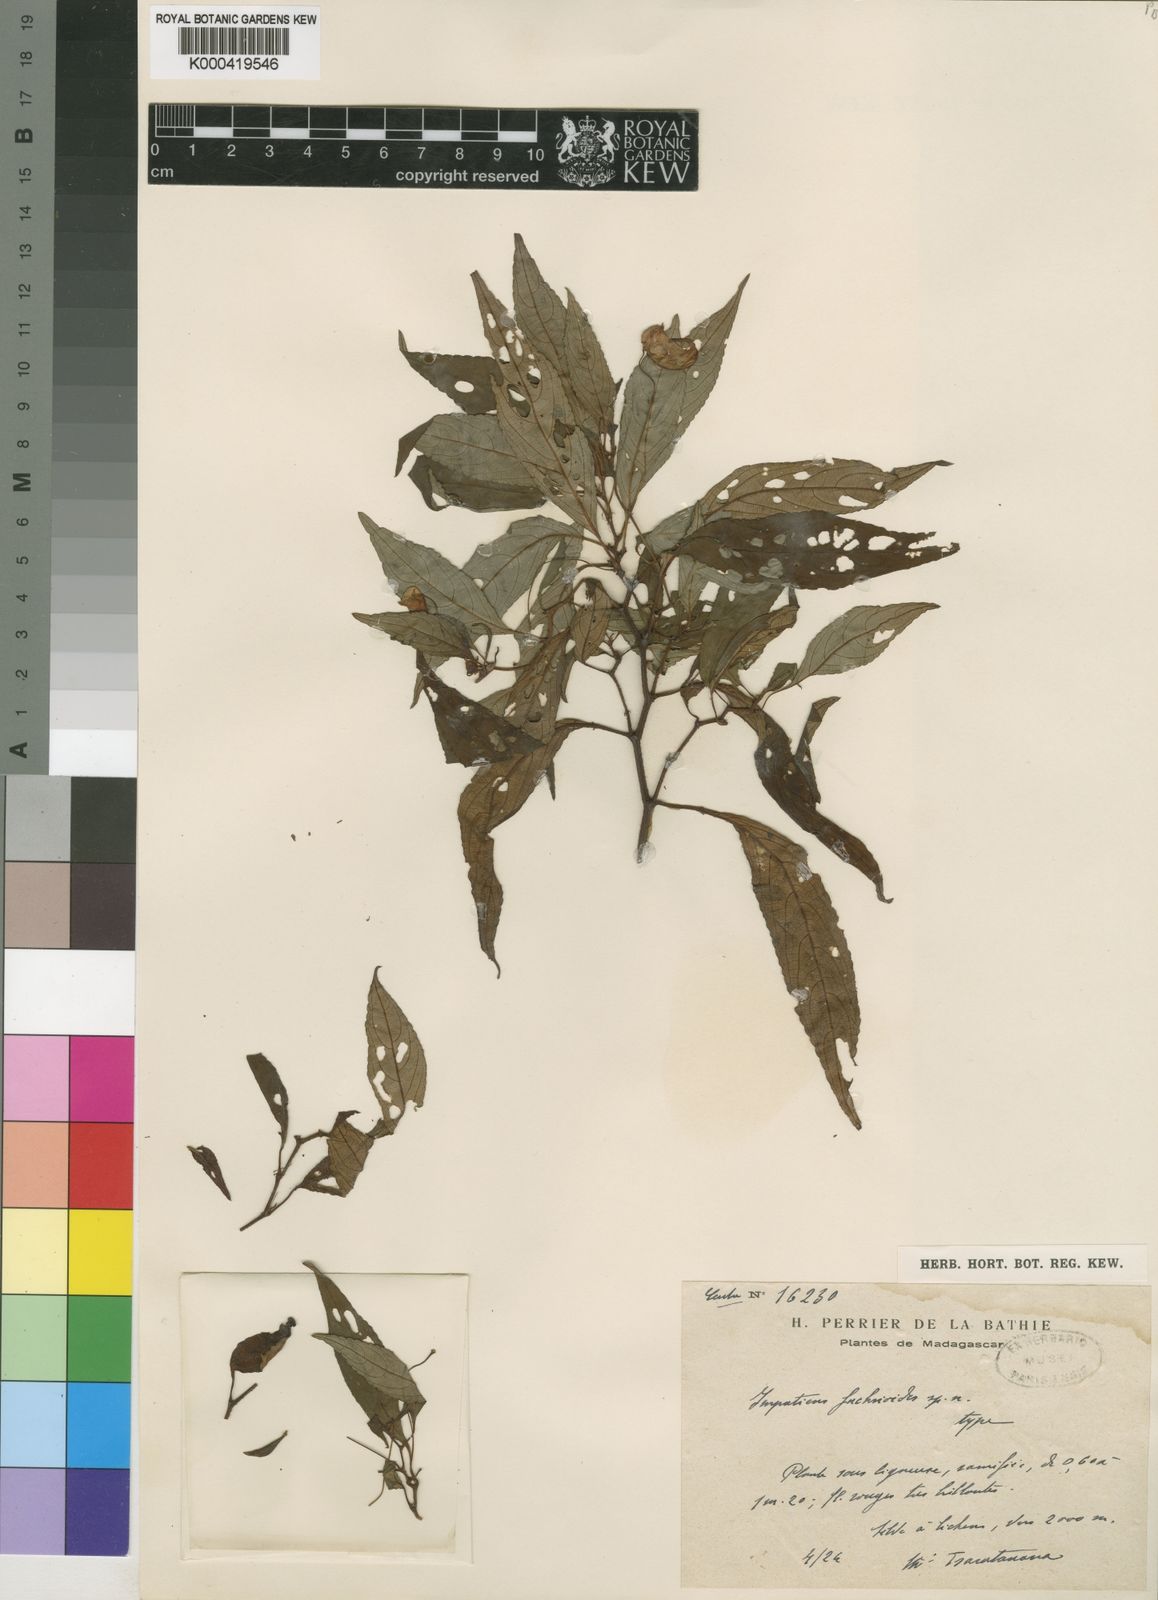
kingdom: Plantae
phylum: Tracheophyta
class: Magnoliopsida
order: Ericales
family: Balsaminaceae
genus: Impatiens
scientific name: Impatiens
